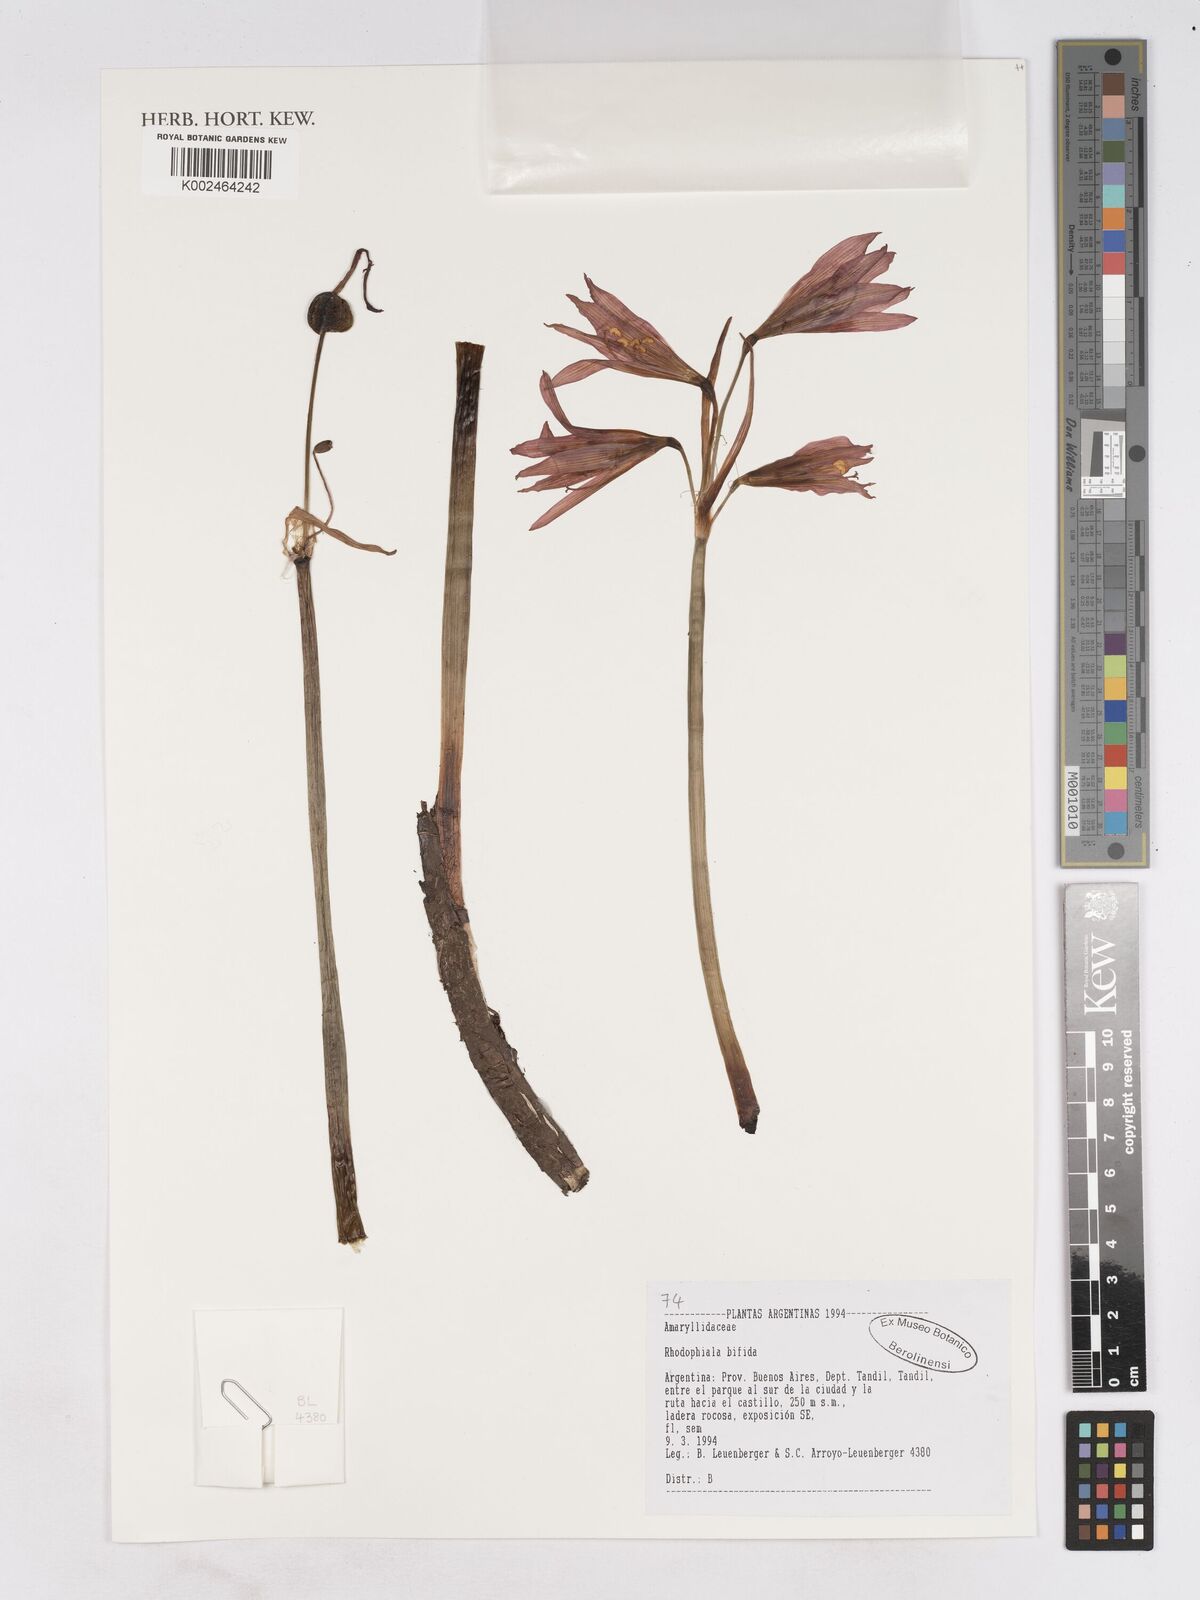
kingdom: Plantae
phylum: Tracheophyta
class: Liliopsida
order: Asparagales
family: Amaryllidaceae
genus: Zephyranthes
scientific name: Zephyranthes bifida
